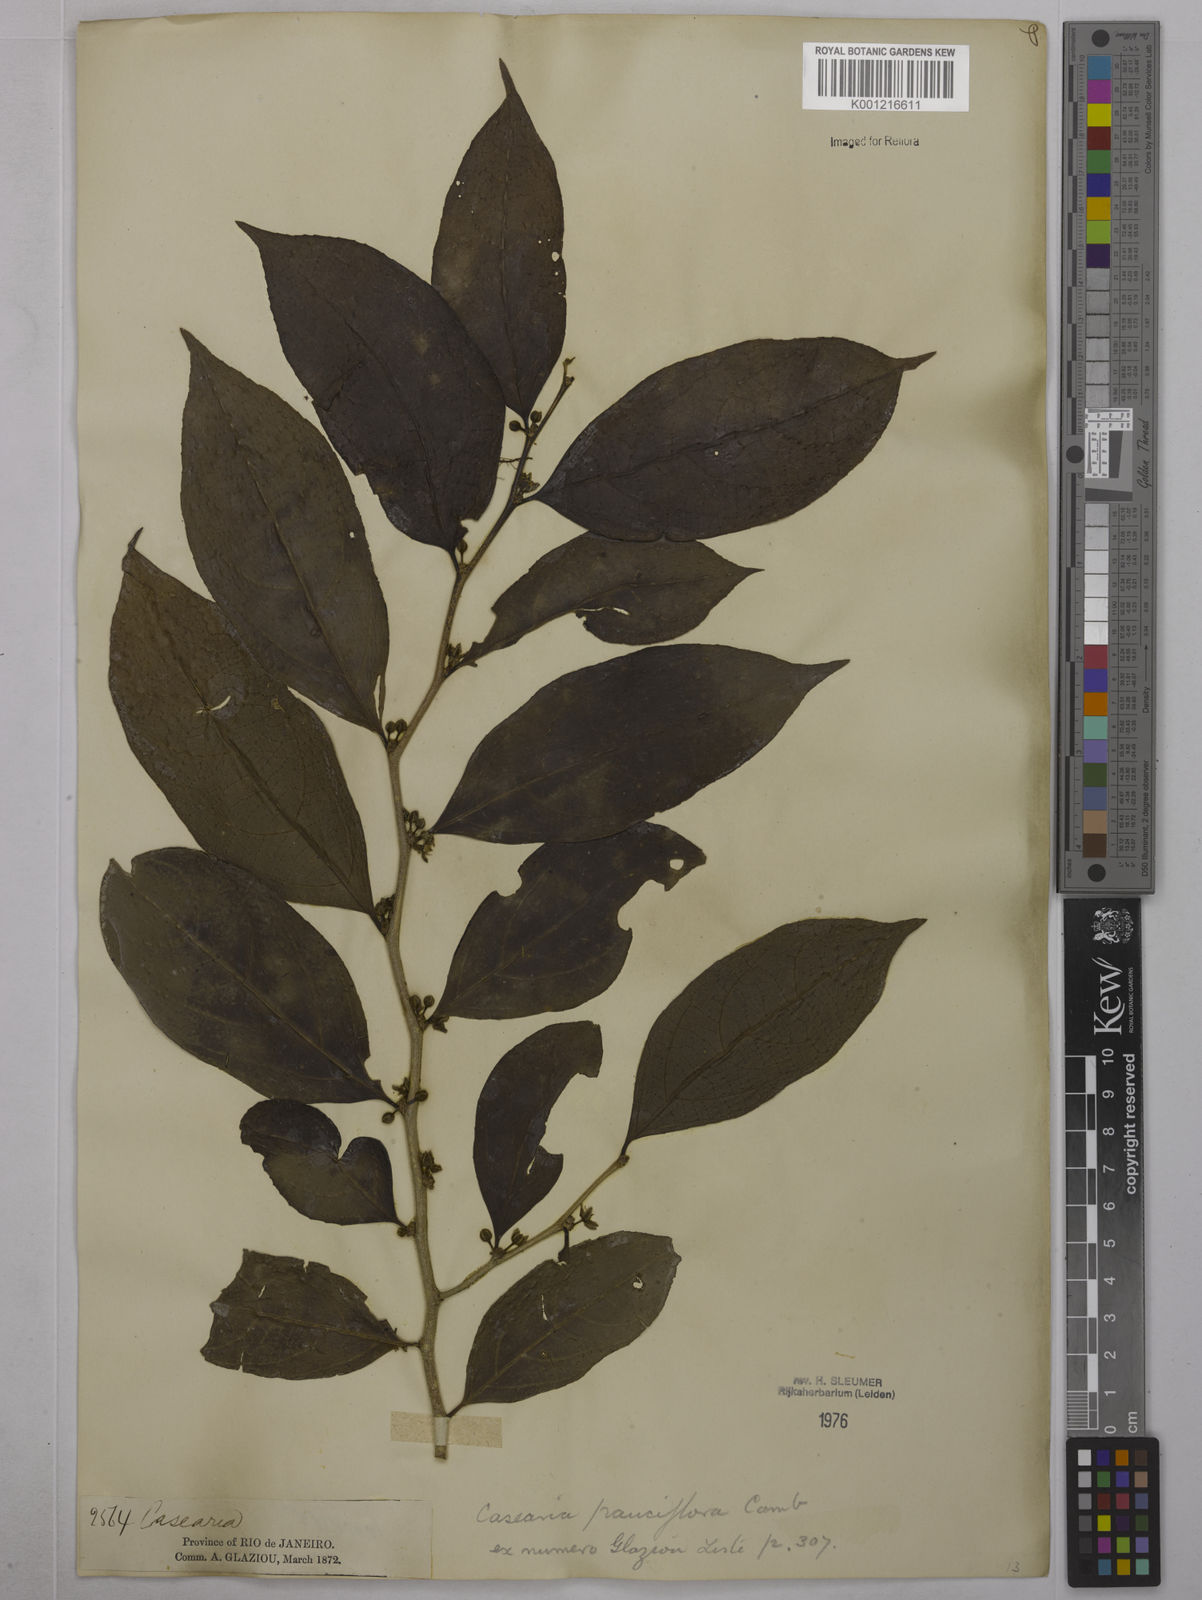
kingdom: Plantae
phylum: Tracheophyta
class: Magnoliopsida
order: Malpighiales
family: Salicaceae
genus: Casearia
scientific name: Casearia pauciflora
